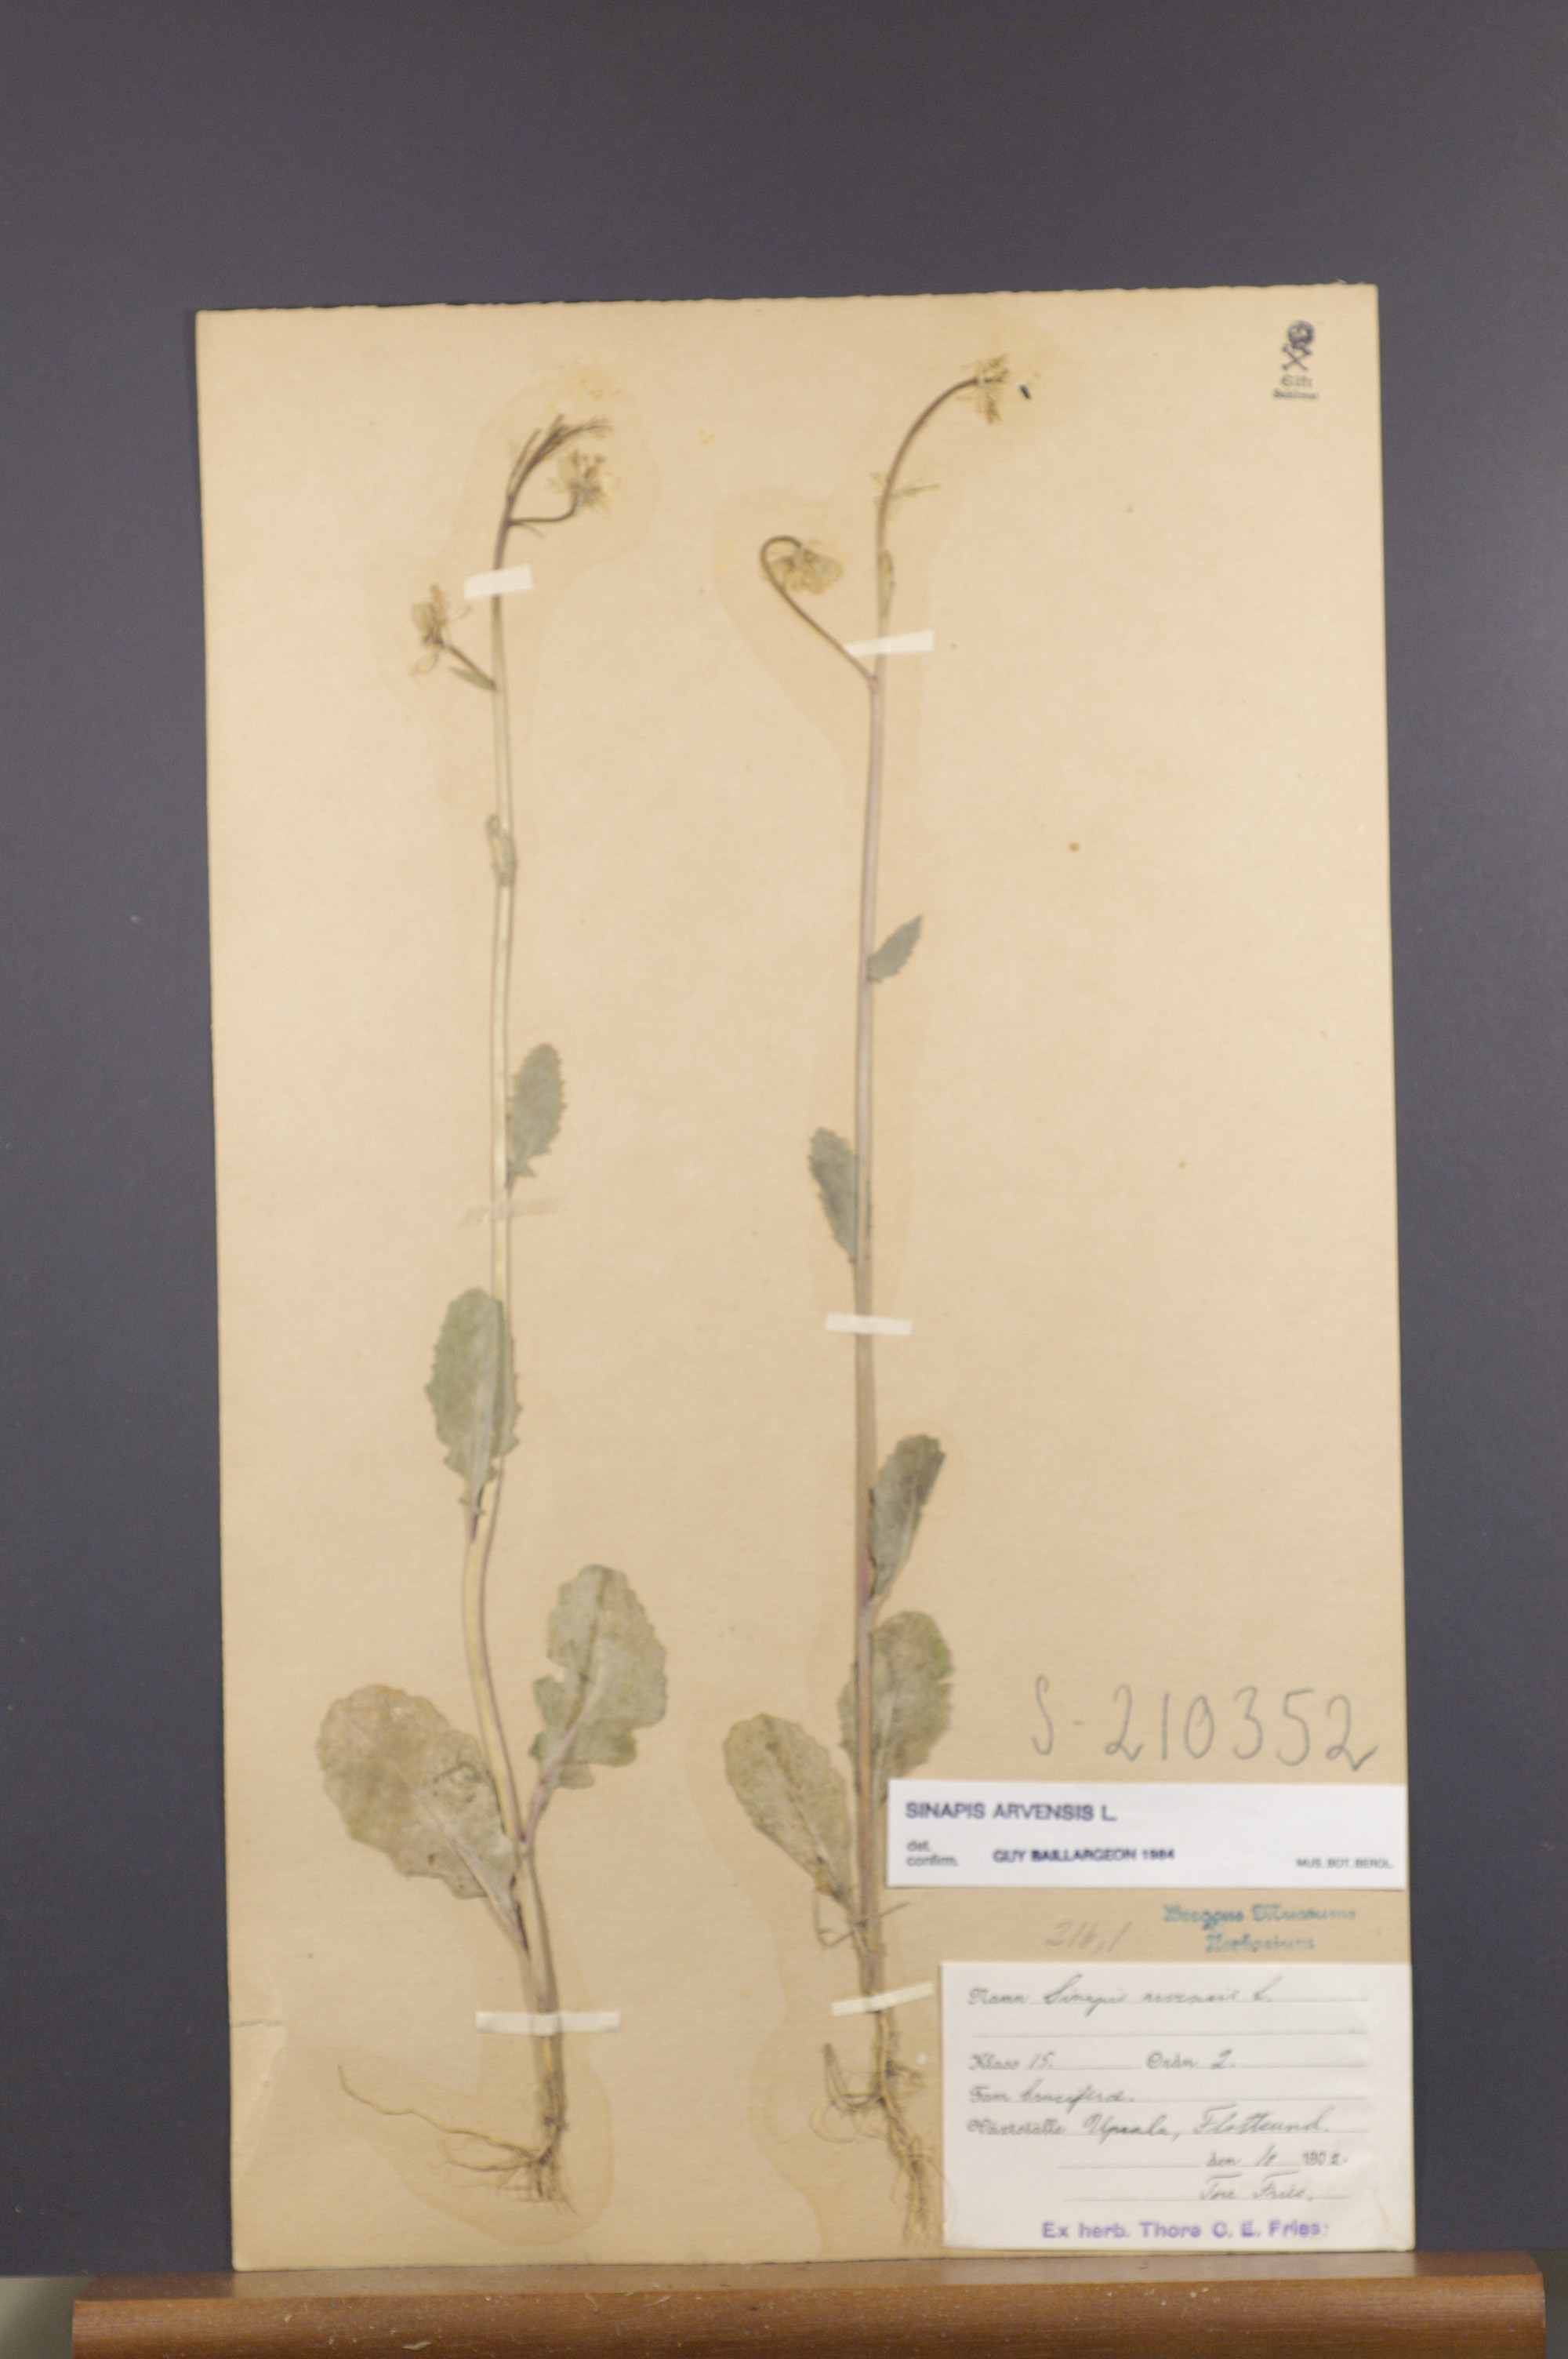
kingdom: Plantae
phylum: Tracheophyta
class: Magnoliopsida
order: Brassicales
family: Brassicaceae
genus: Sinapis
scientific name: Sinapis arvensis
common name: Charlock
